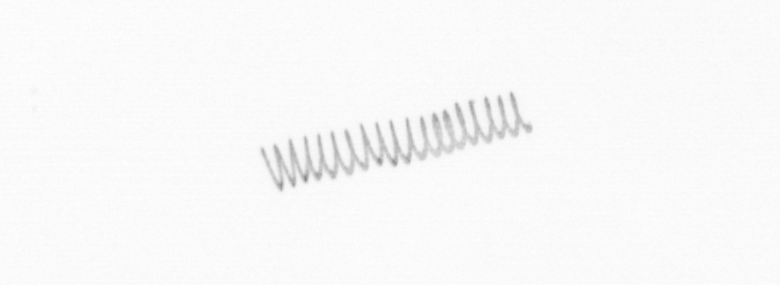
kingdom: Chromista
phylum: Ochrophyta
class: Bacillariophyceae
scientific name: Bacillariophyceae
